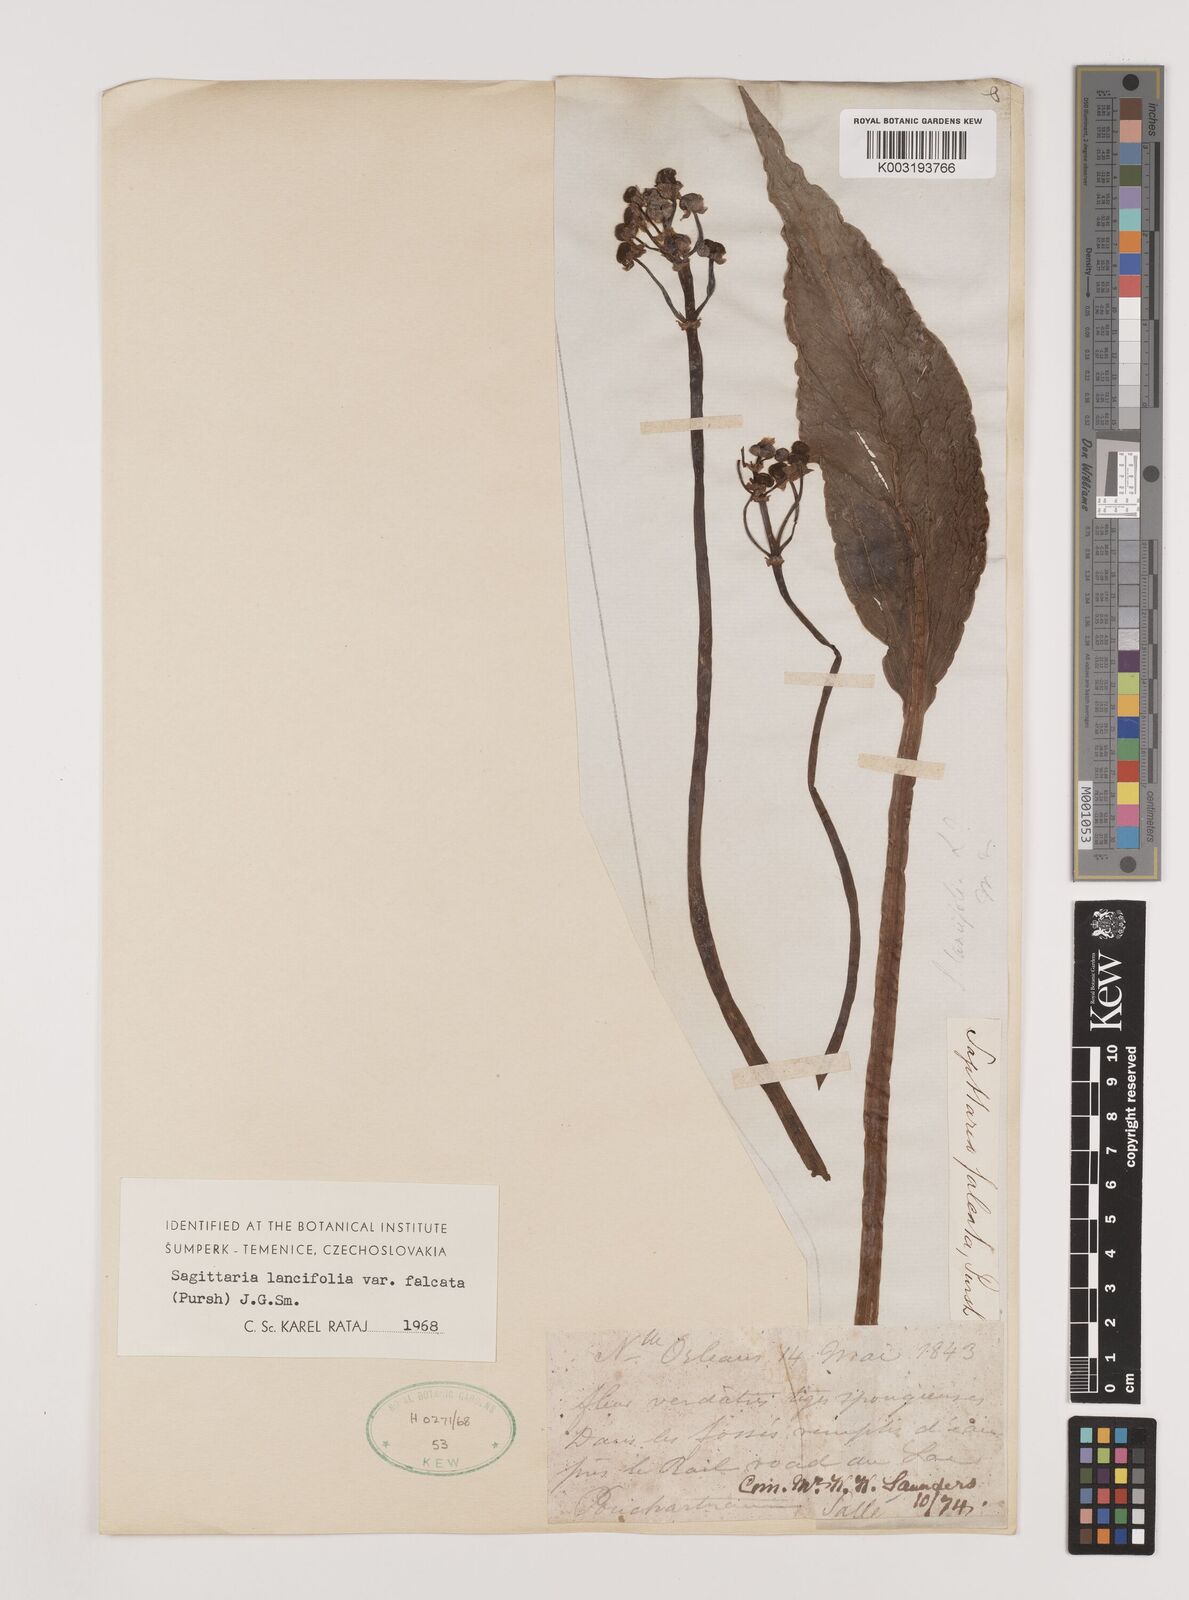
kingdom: Plantae
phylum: Tracheophyta
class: Liliopsida
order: Alismatales
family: Alismataceae
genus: Sagittaria
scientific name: Sagittaria lancifolia
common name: Lance-leaf arrowhead
